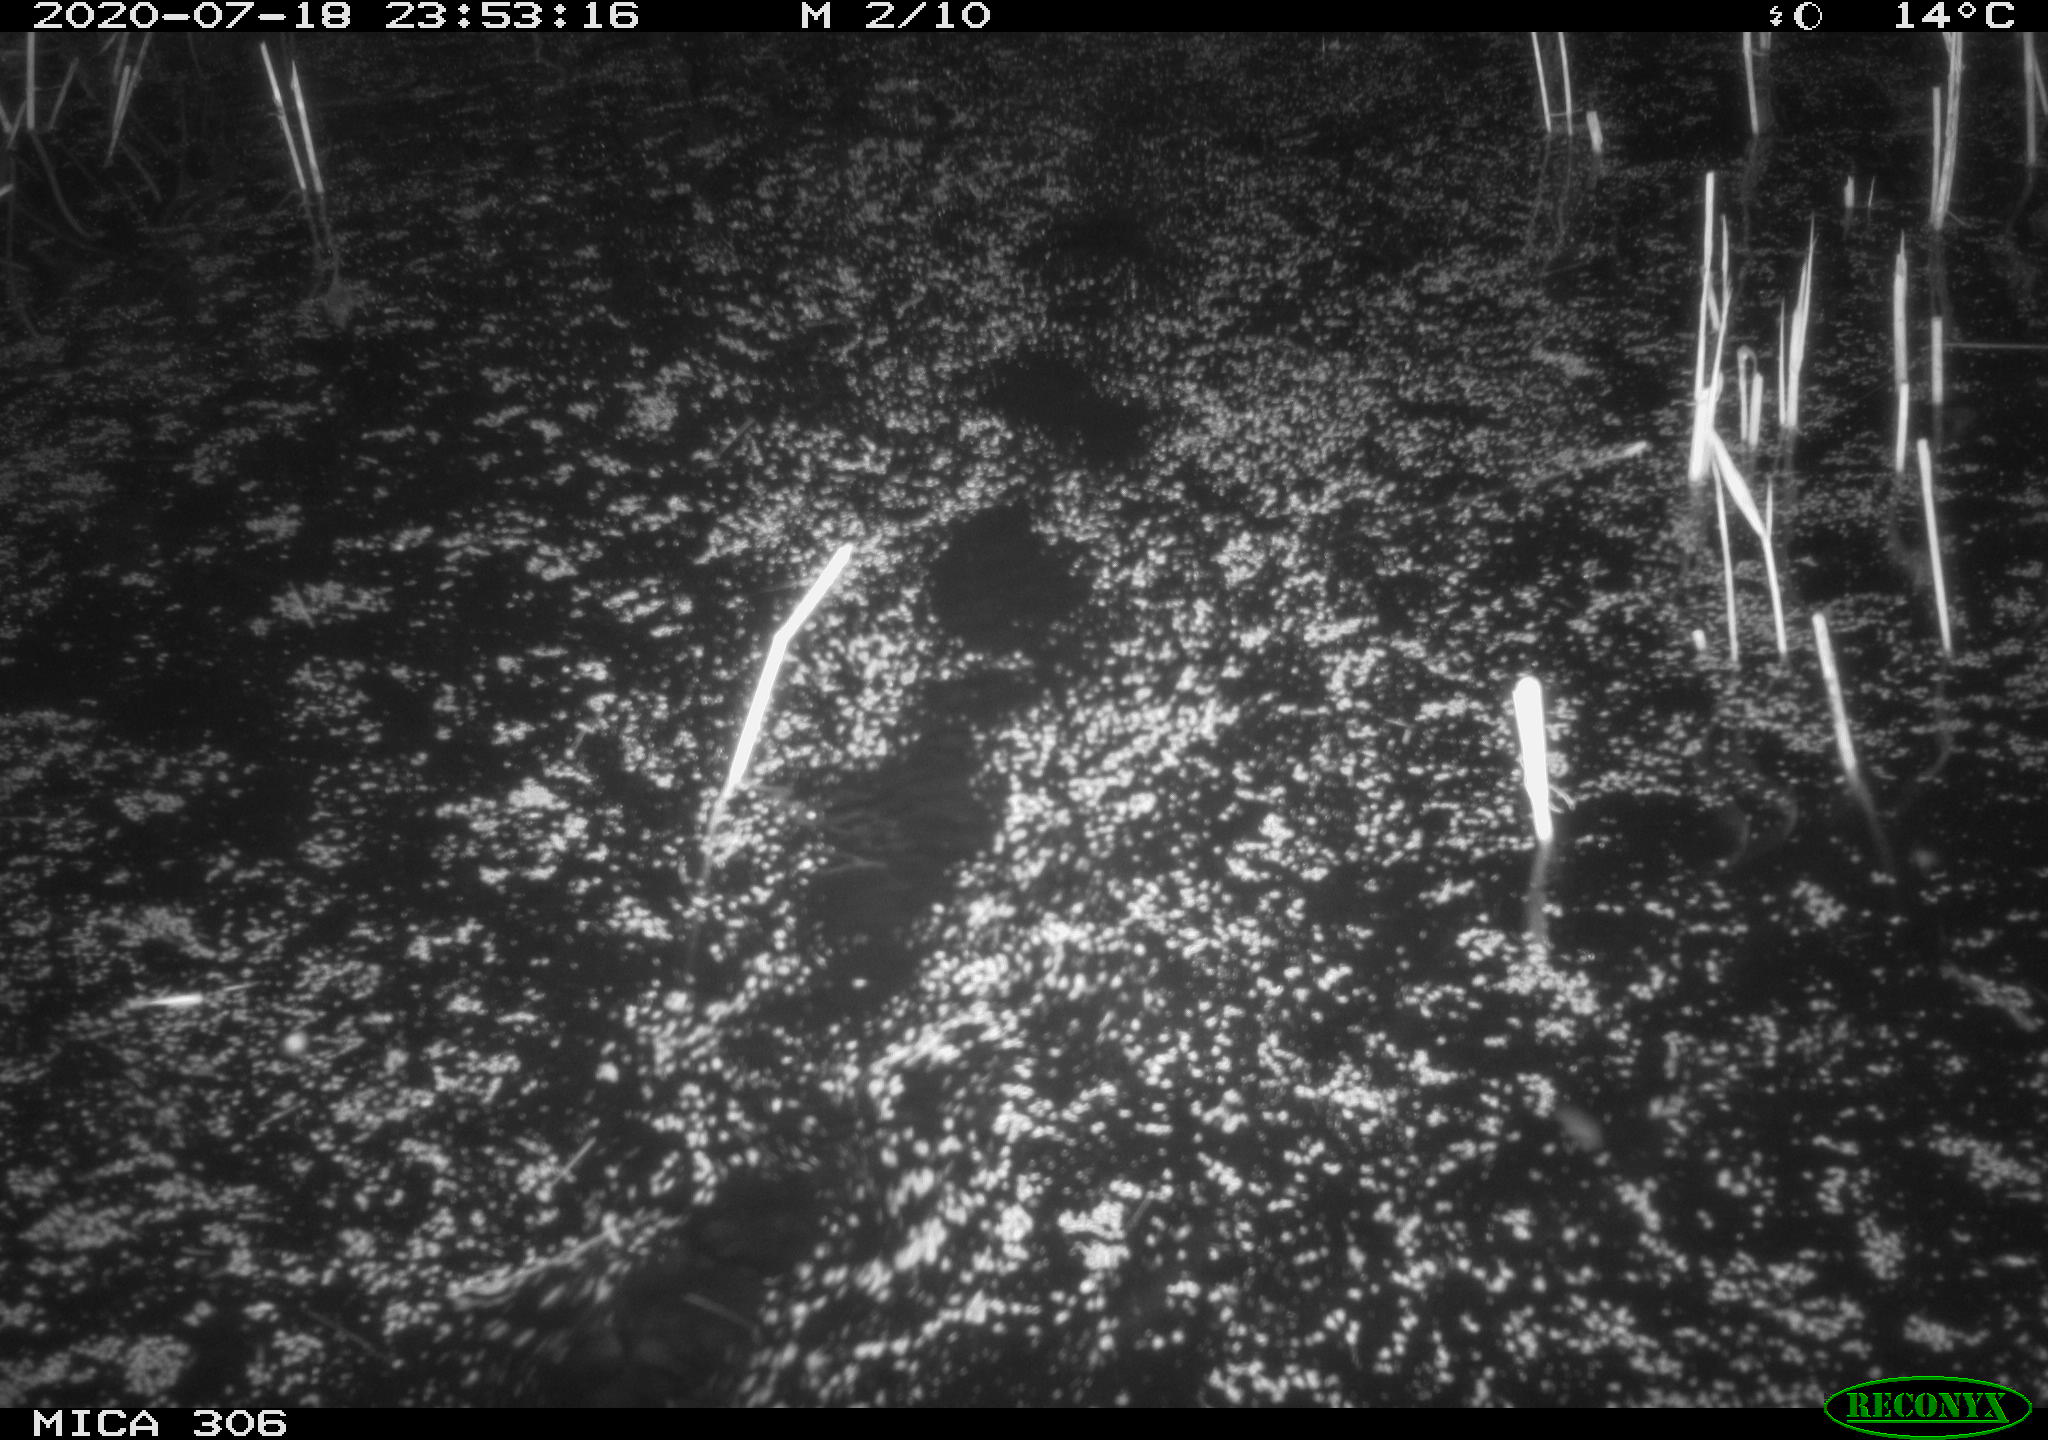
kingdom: Animalia
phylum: Chordata
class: Mammalia
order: Rodentia
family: Cricetidae
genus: Ondatra
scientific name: Ondatra zibethicus
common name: Muskrat
